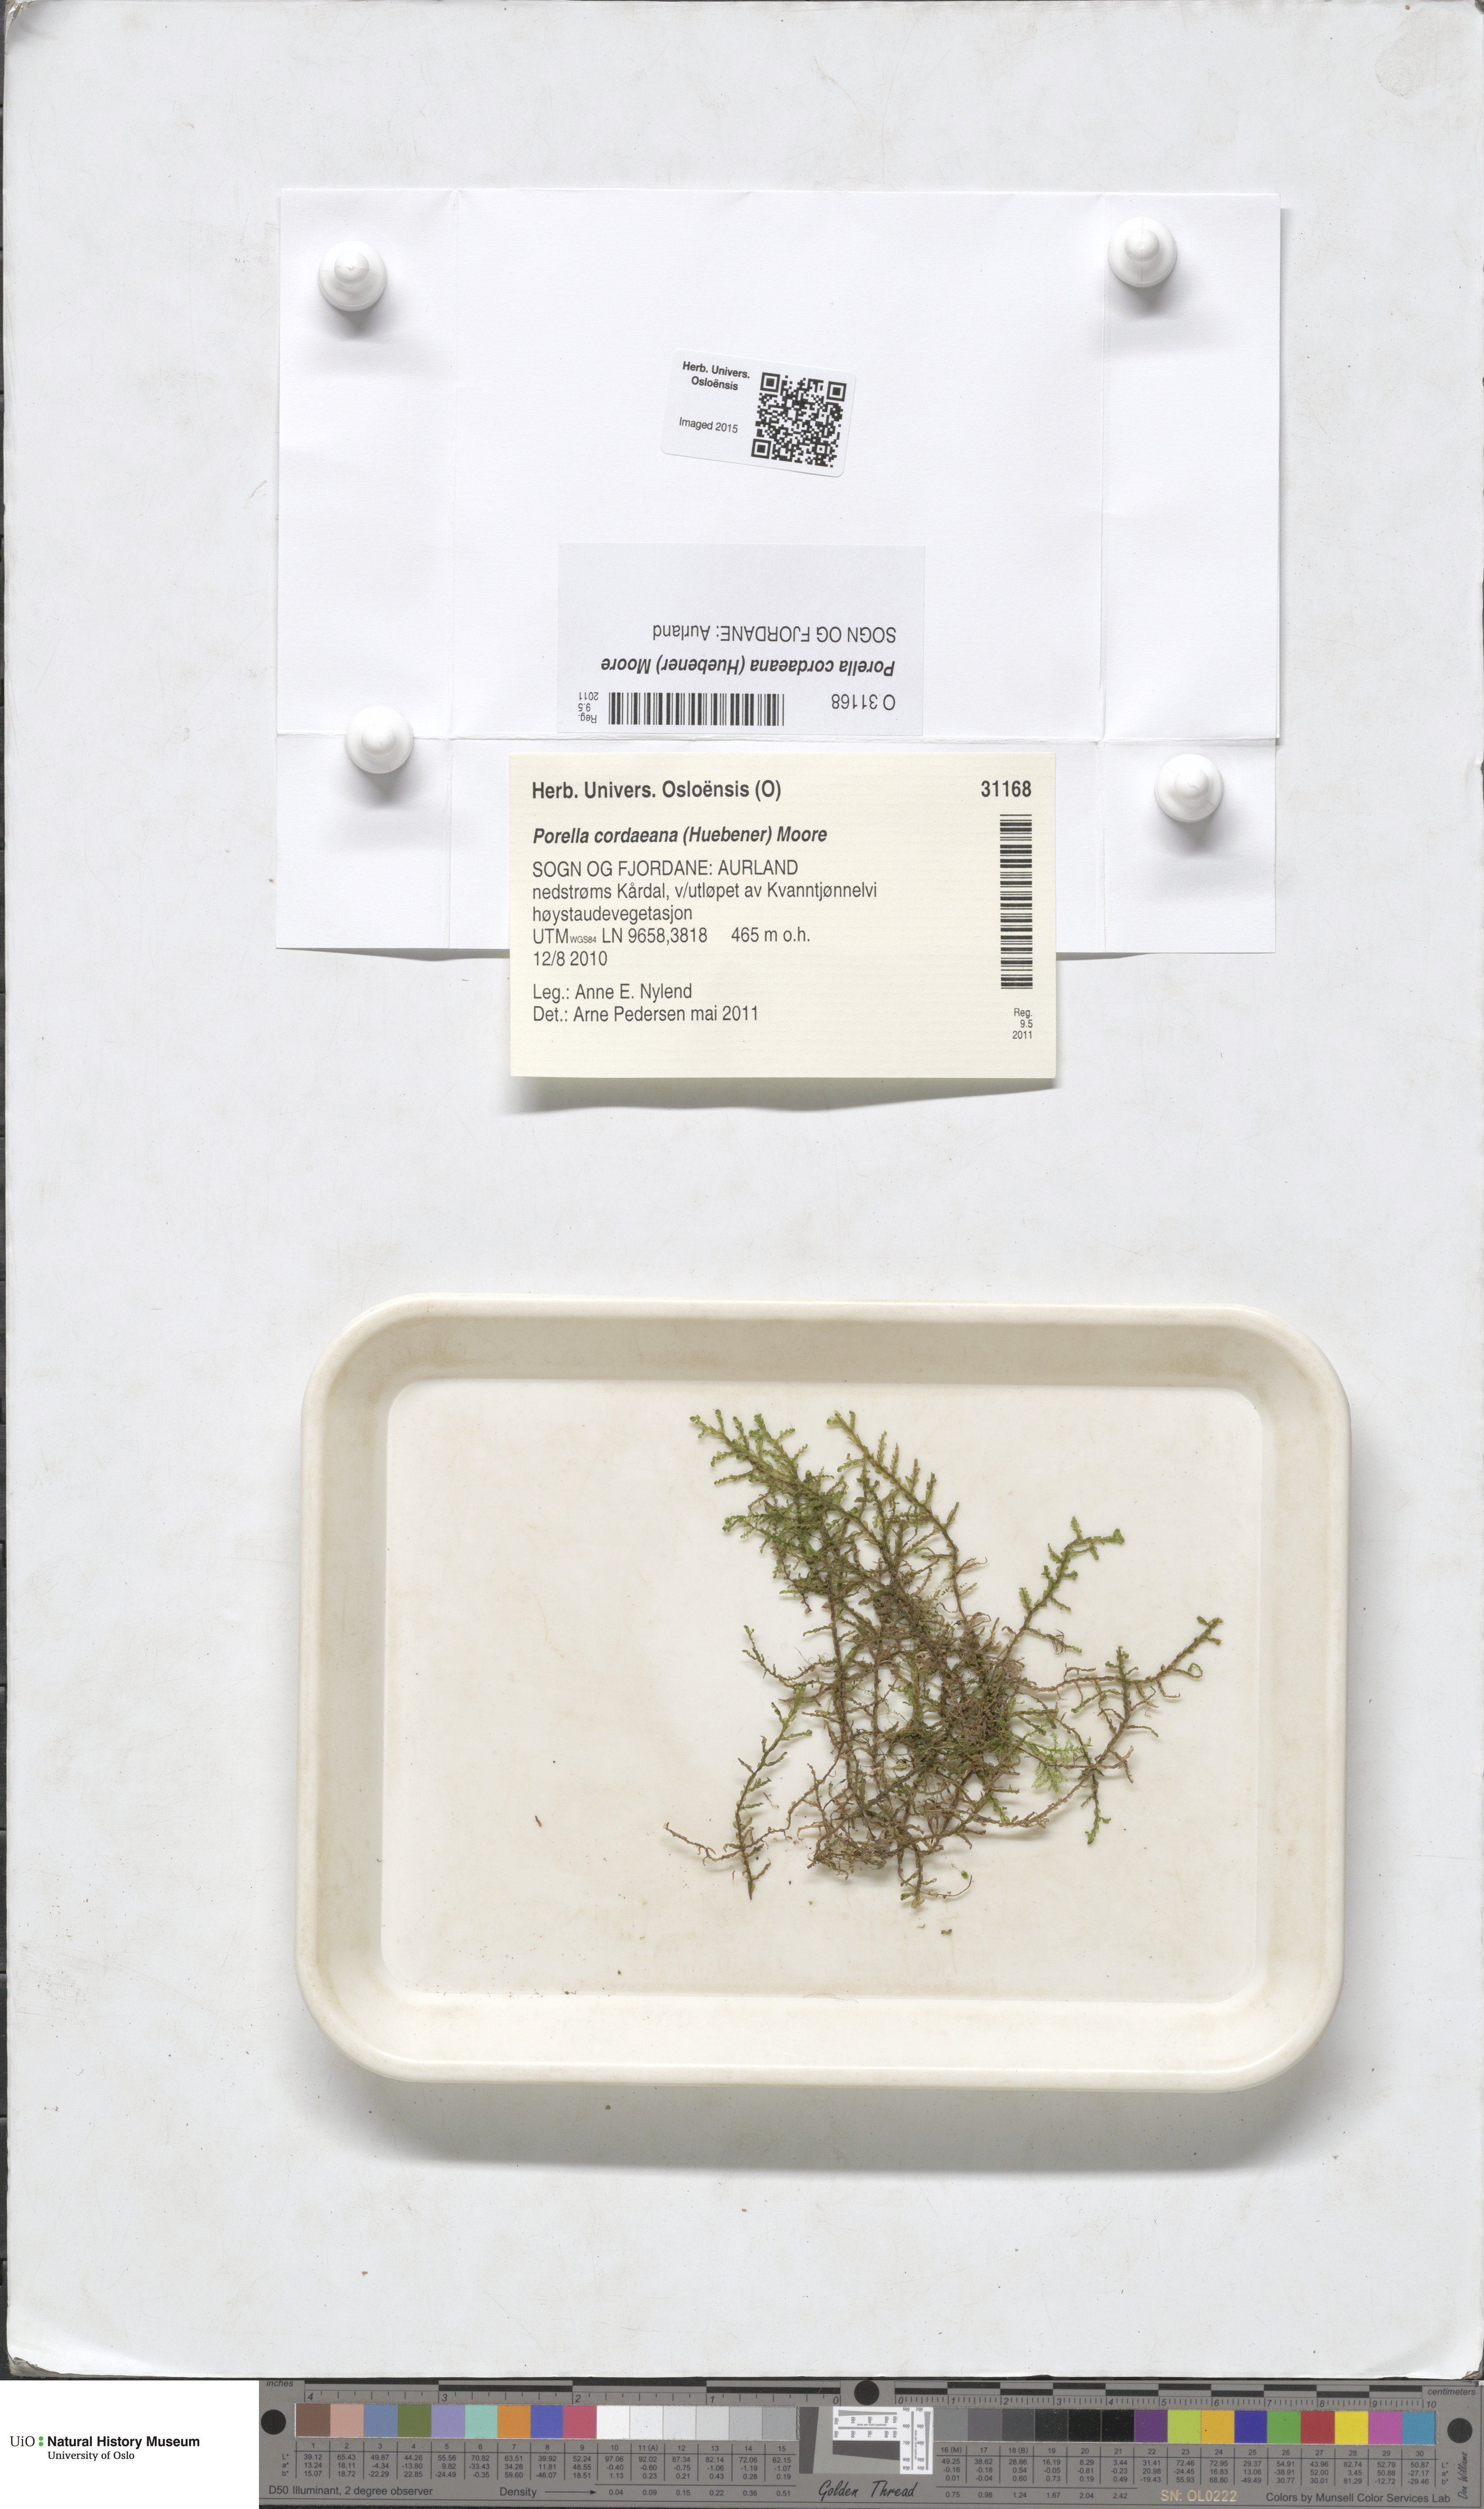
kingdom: Plantae
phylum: Marchantiophyta
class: Jungermanniopsida
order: Porellales
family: Porellaceae
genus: Porella
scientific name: Porella cordaeana
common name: Cliff scalewort
